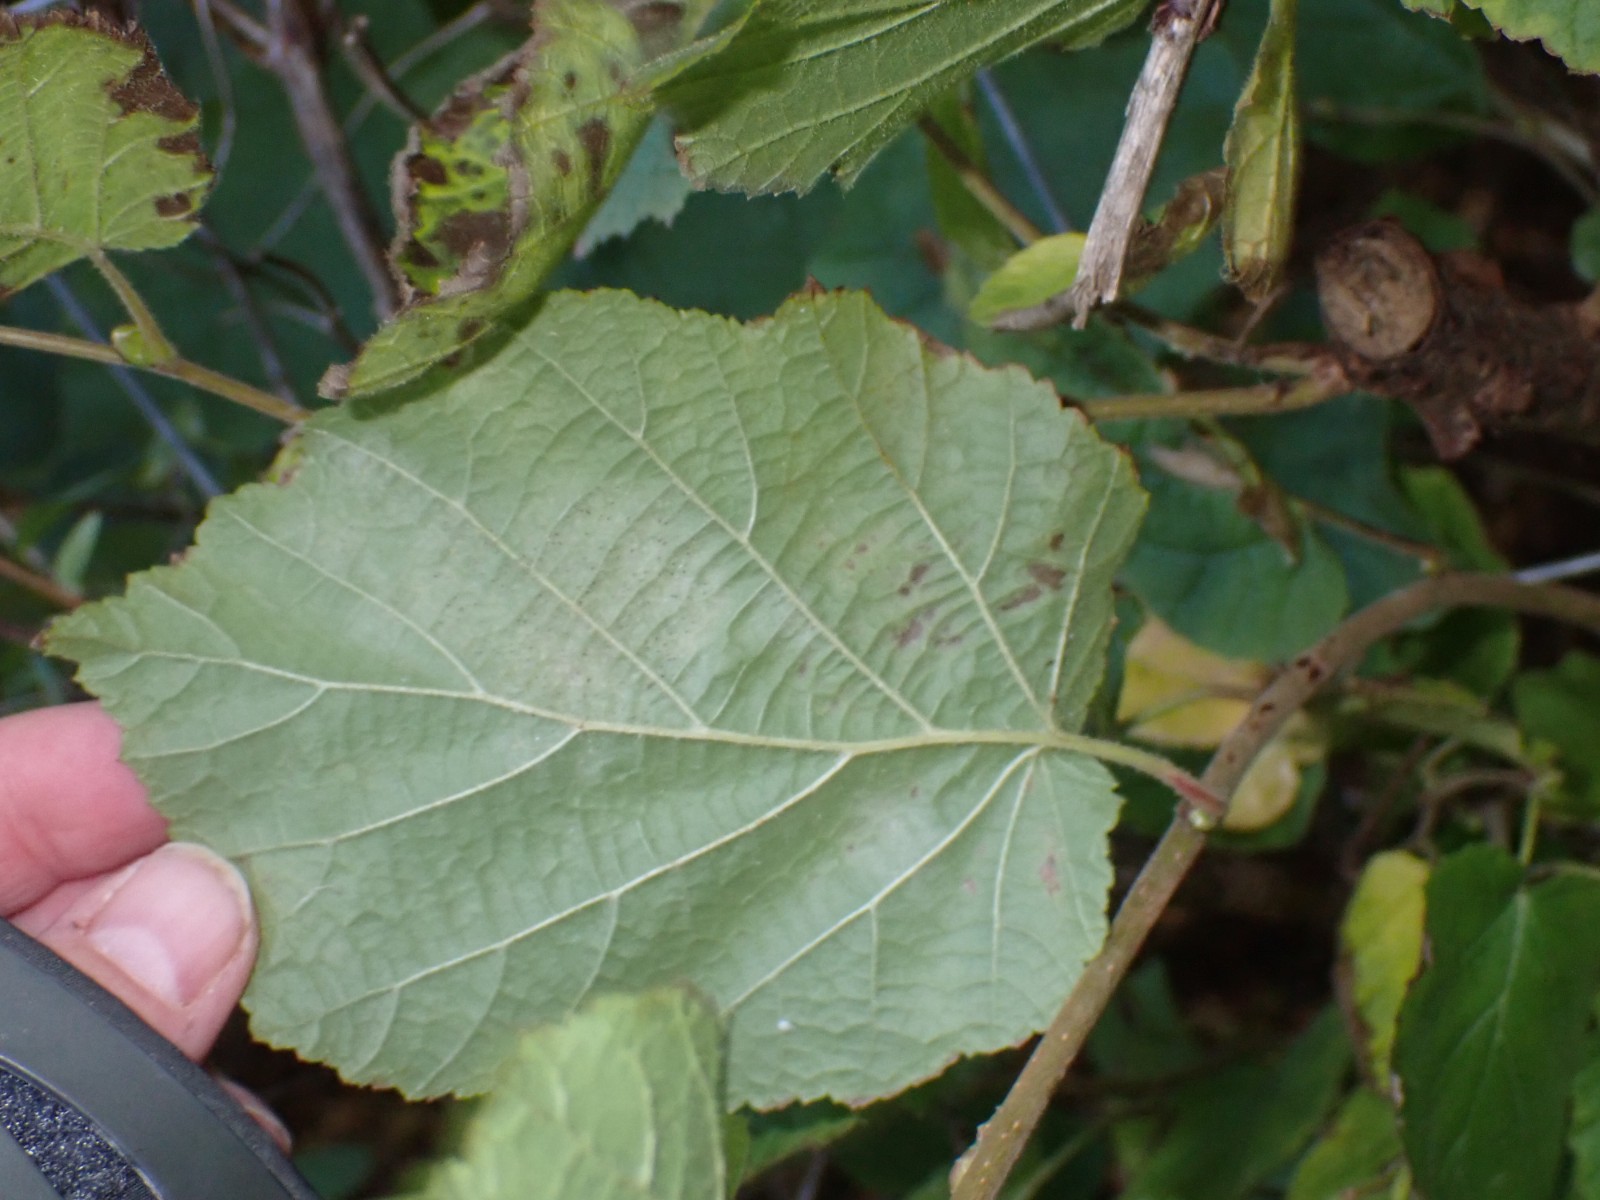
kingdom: Fungi
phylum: Ascomycota
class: Leotiomycetes
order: Helotiales
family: Erysiphaceae
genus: Phyllactinia
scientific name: Phyllactinia guttata
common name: hassel-meldug
